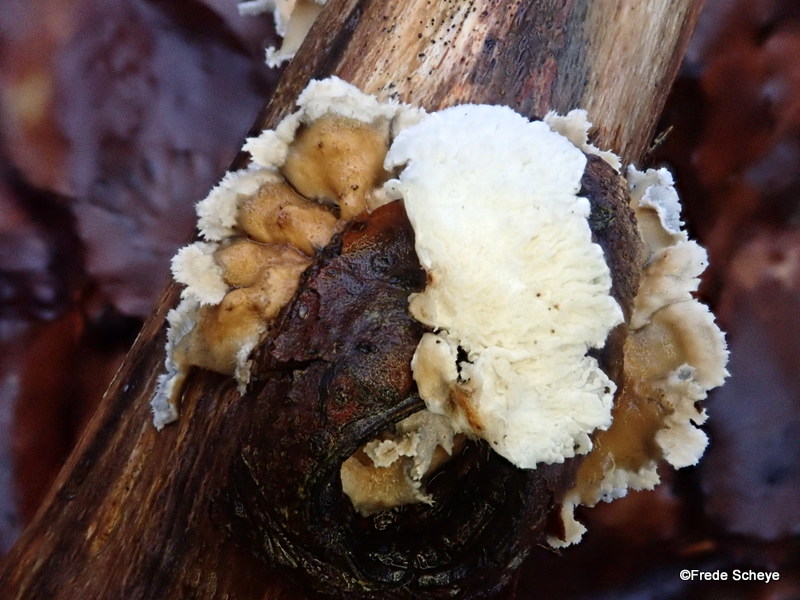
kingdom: Fungi
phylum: Basidiomycota
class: Agaricomycetes
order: Amylocorticiales
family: Amylocorticiaceae
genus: Plicaturopsis
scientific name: Plicaturopsis crispa
